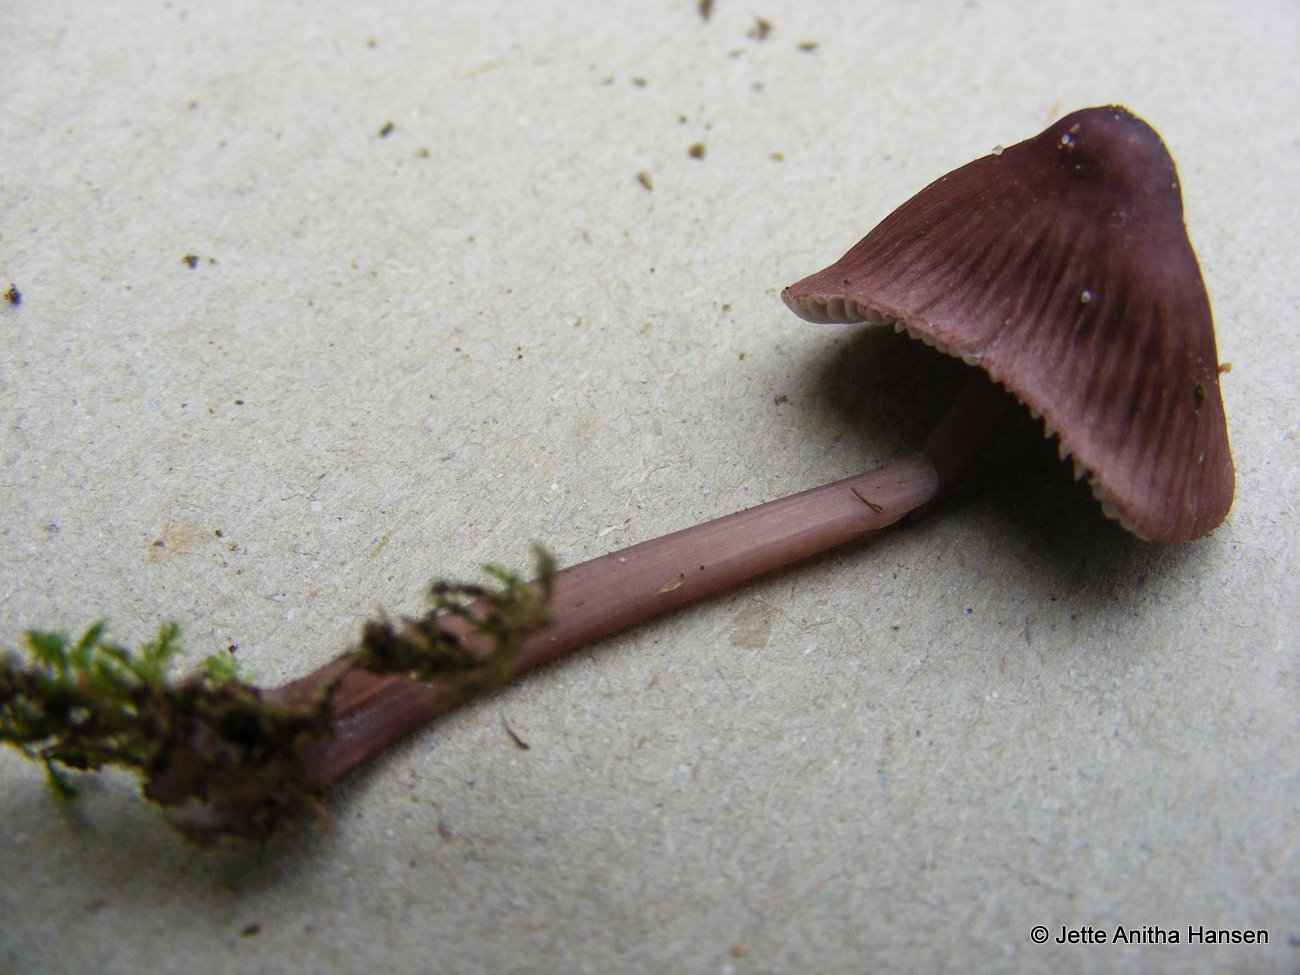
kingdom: Fungi
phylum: Basidiomycota
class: Agaricomycetes
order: Agaricales
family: Mycenaceae
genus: Mycena
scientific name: Mycena sanguinolenta
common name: rødmælket huesvamp
